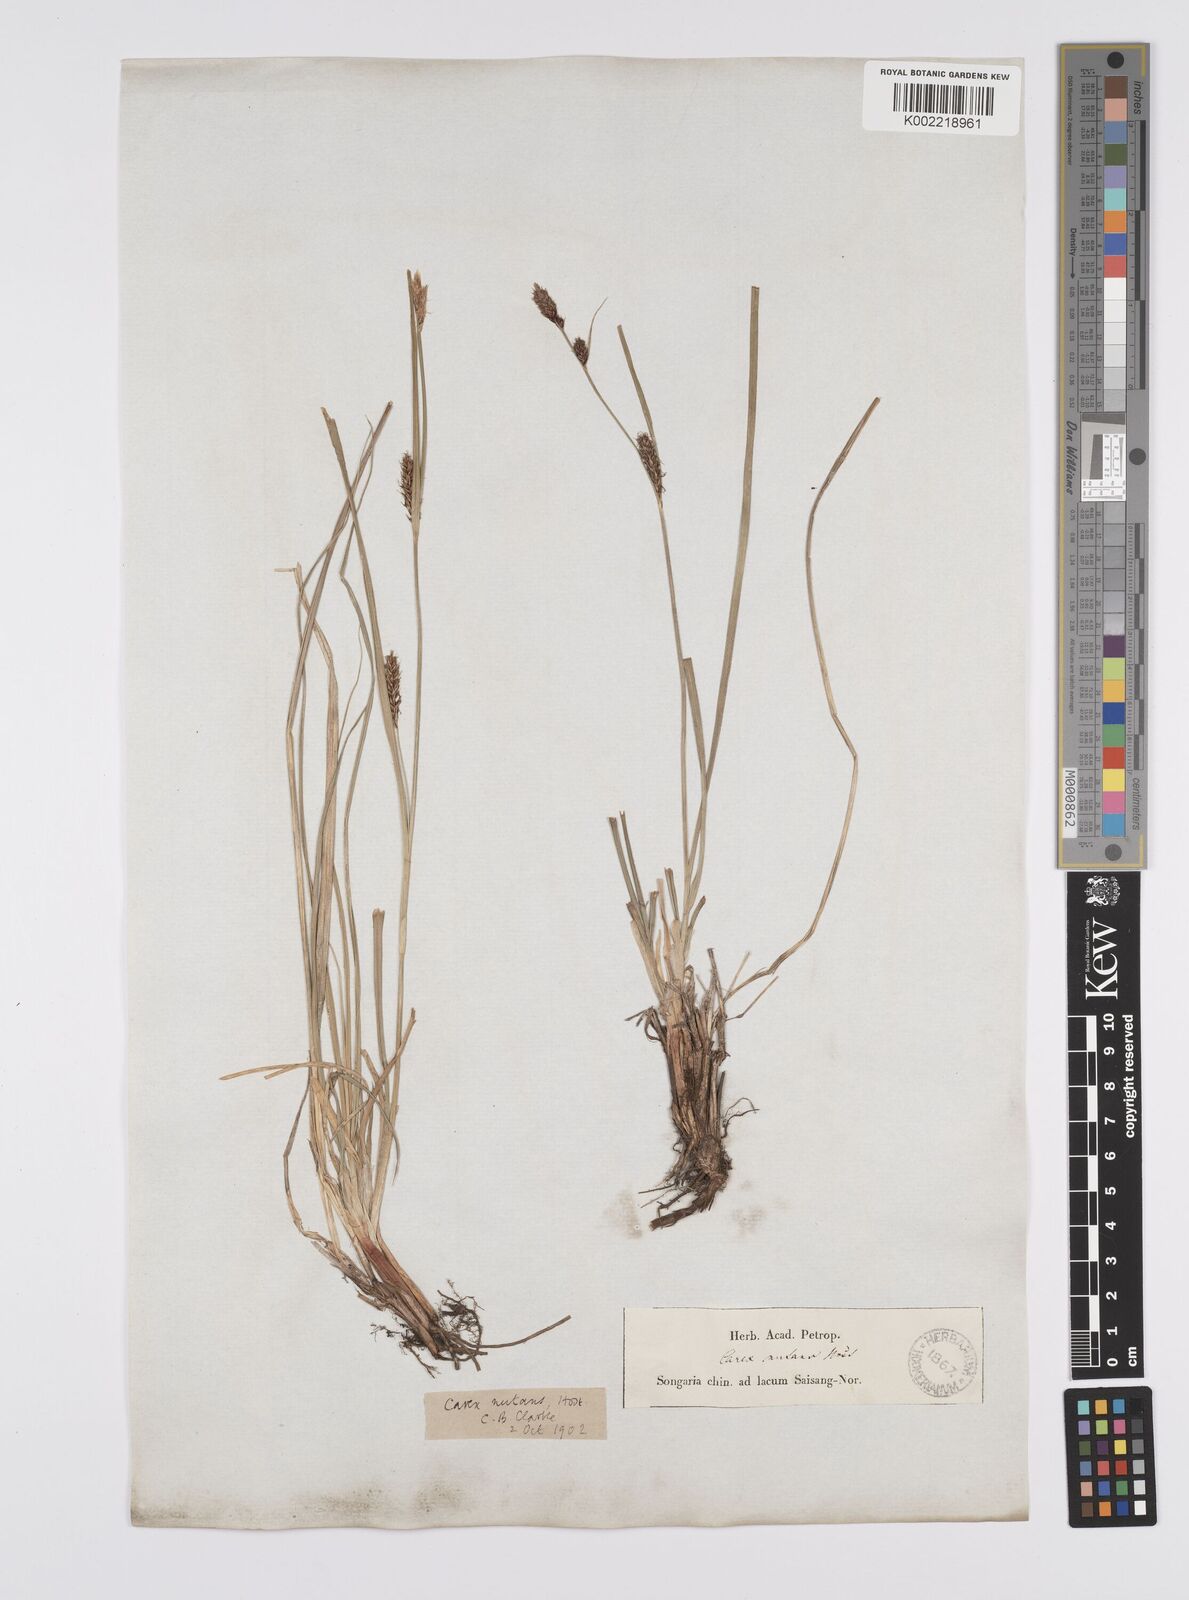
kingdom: Plantae
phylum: Tracheophyta
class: Liliopsida
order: Poales
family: Cyperaceae
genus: Carex
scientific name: Carex melanostachya
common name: Black-spiked sedge
